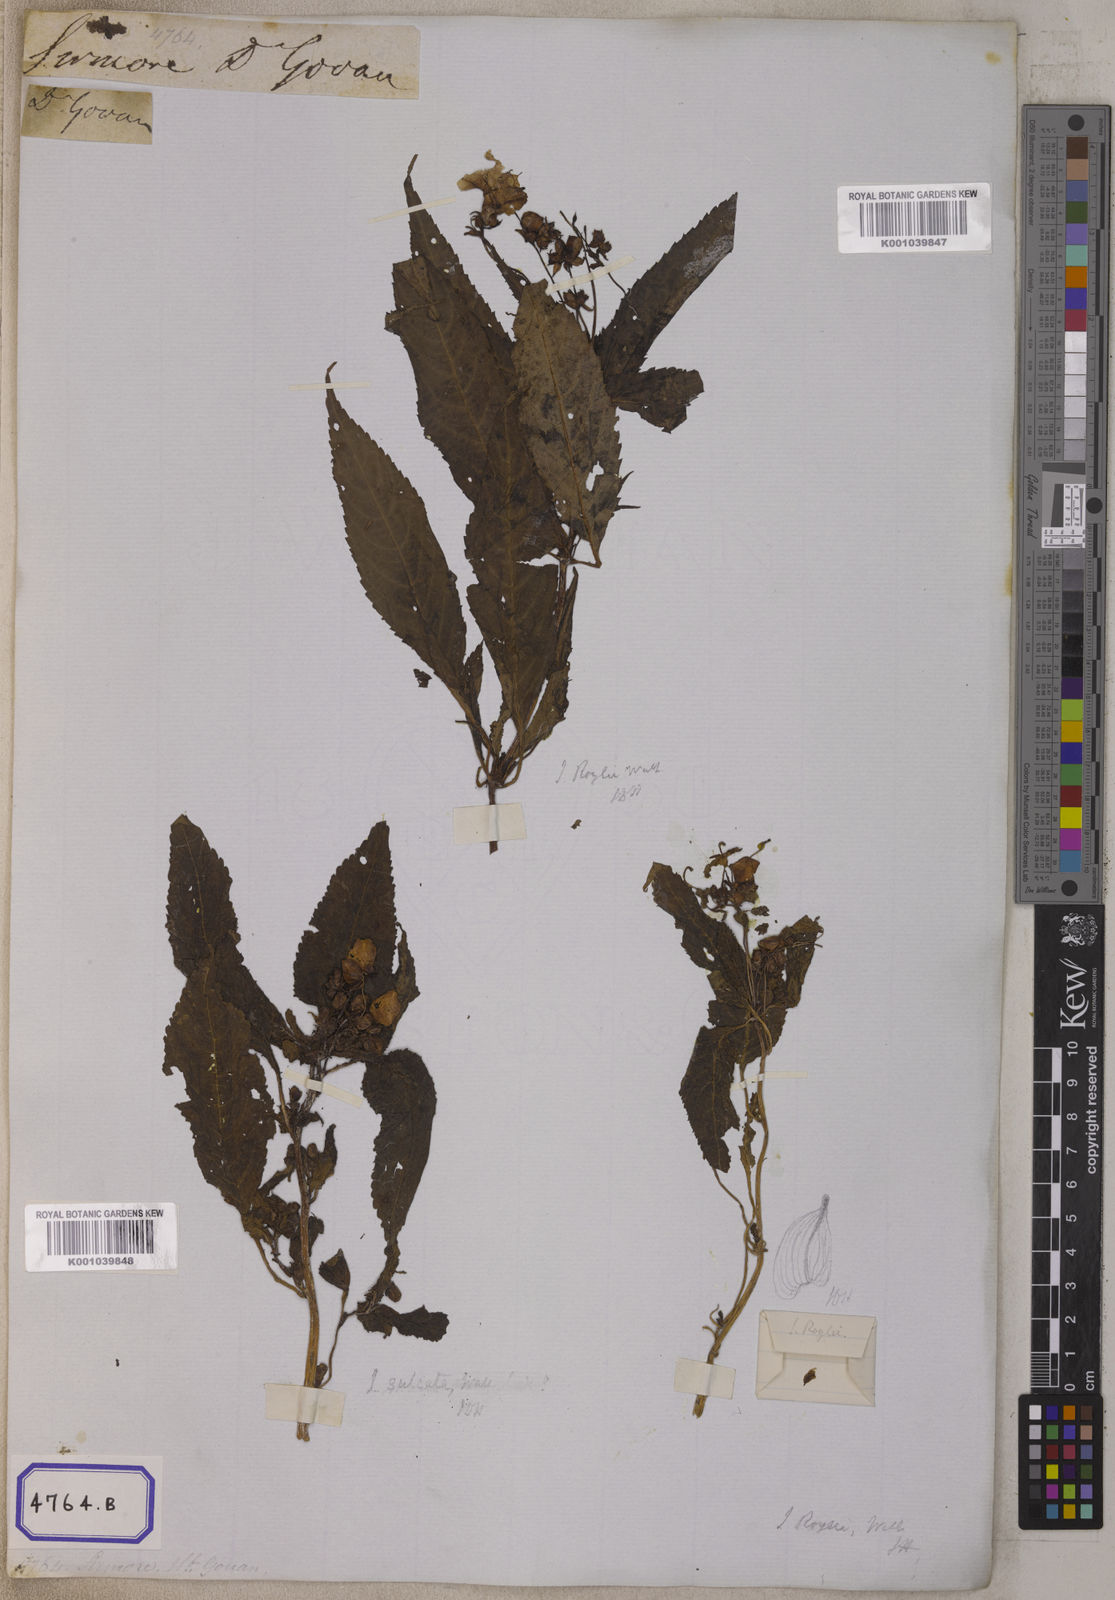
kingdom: Plantae
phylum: Tracheophyta
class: Magnoliopsida
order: Ericales
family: Balsaminaceae
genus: Impatiens
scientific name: Impatiens sulcata
